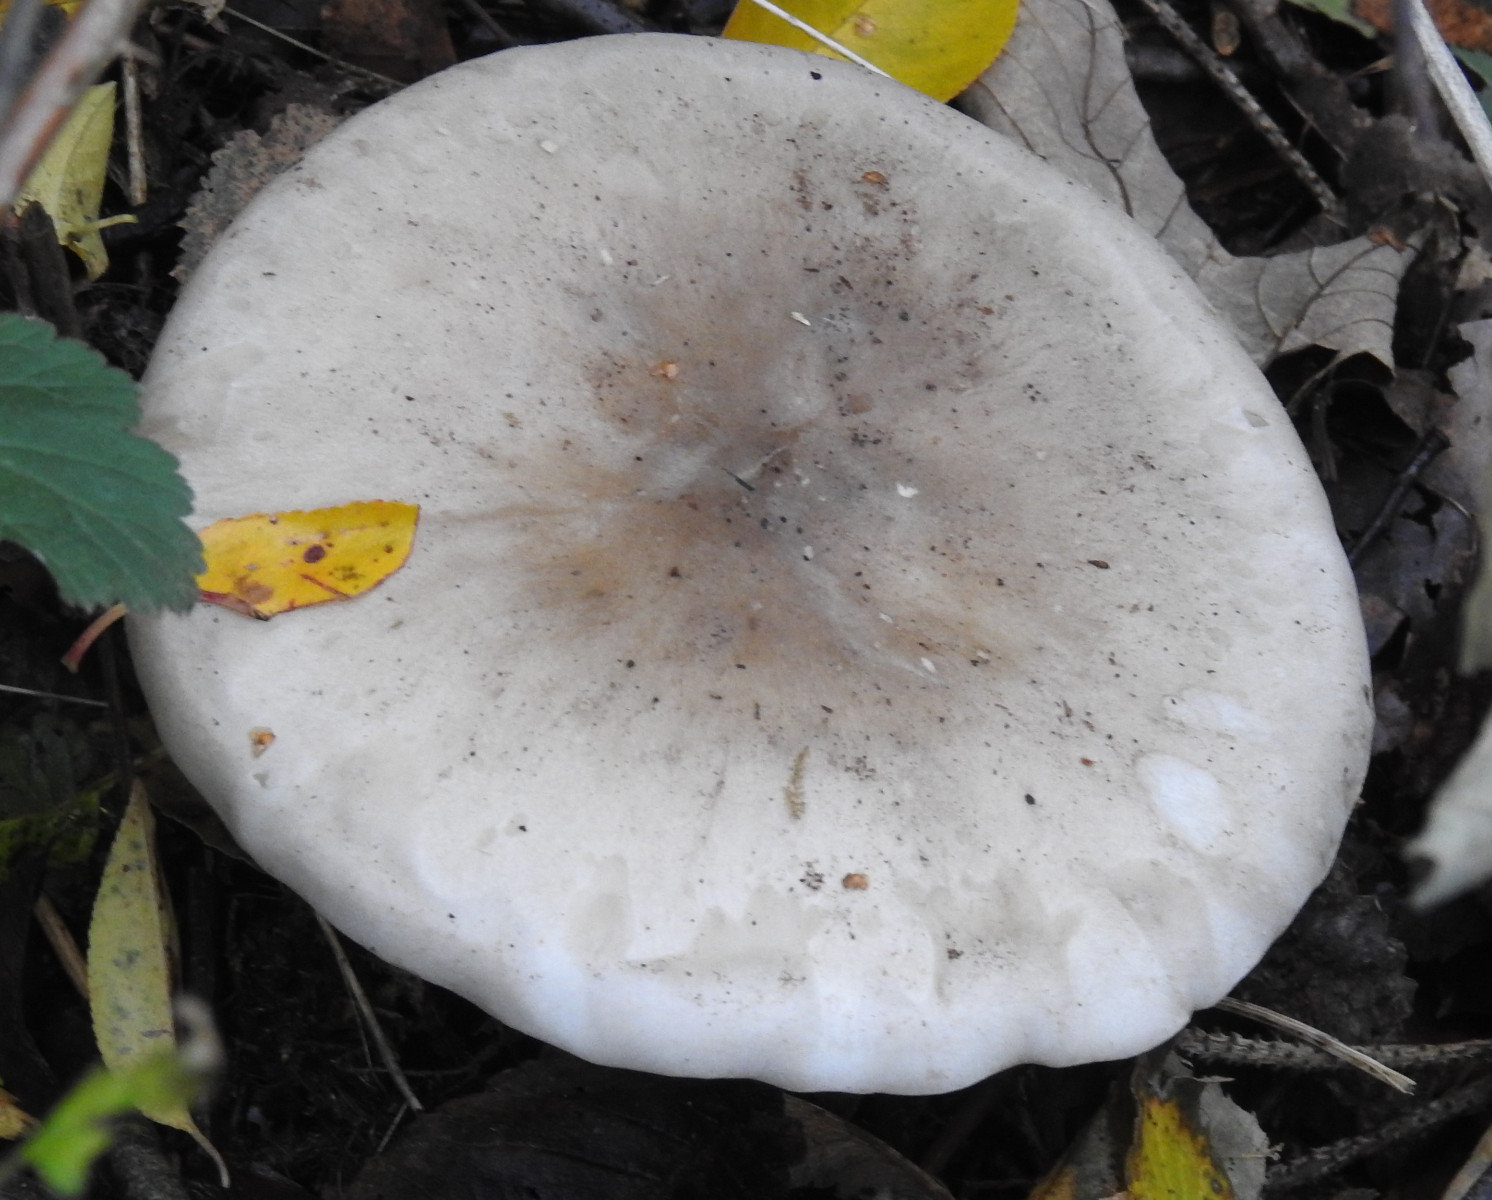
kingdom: Fungi
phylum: Basidiomycota
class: Agaricomycetes
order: Agaricales
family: Tricholomataceae
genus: Clitocybe
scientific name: Clitocybe nebularis
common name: tåge-tragthat
